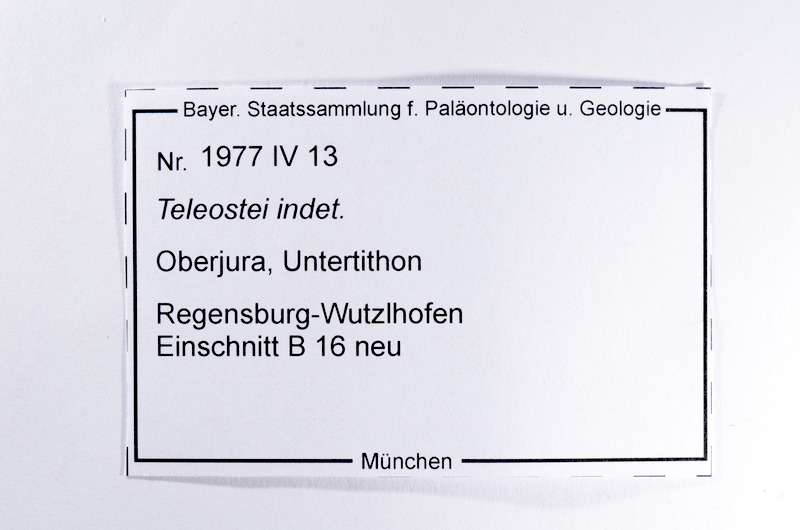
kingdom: Animalia
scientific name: Animalia
